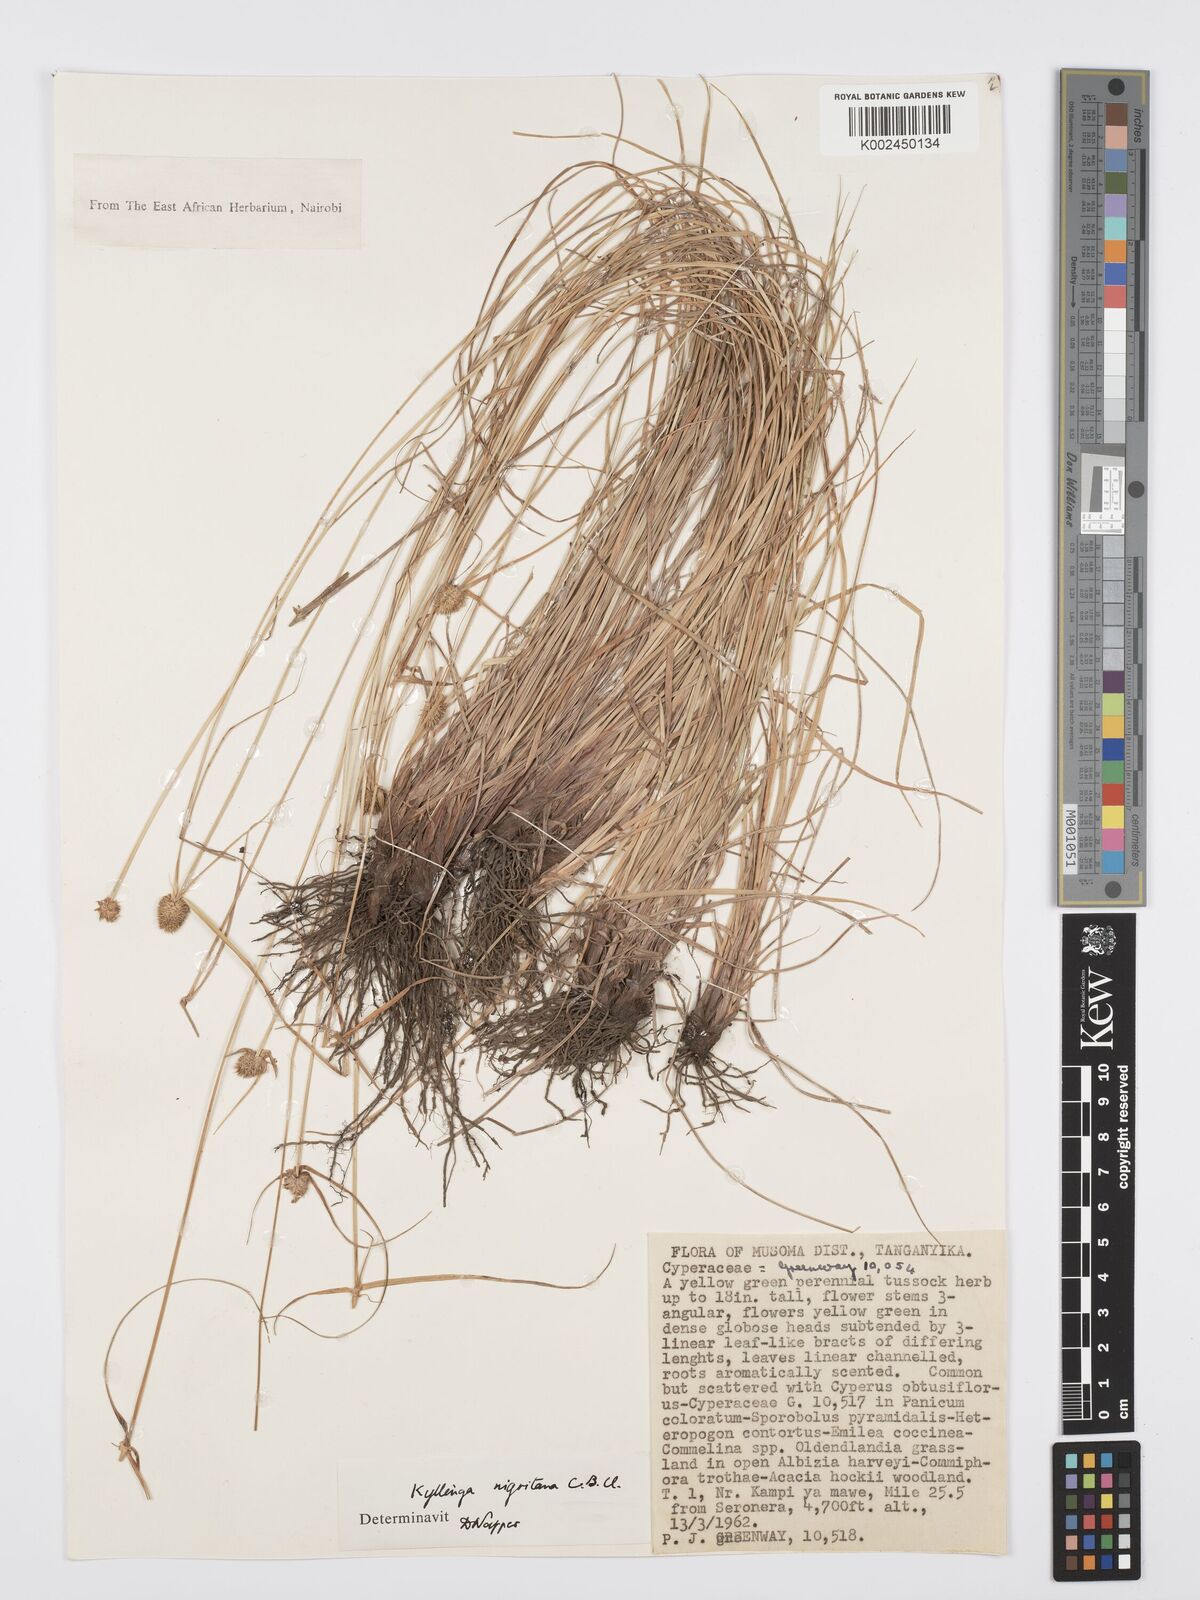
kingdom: Plantae
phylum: Tracheophyta
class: Liliopsida
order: Poales
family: Cyperaceae
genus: Cyperus
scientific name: Cyperus
